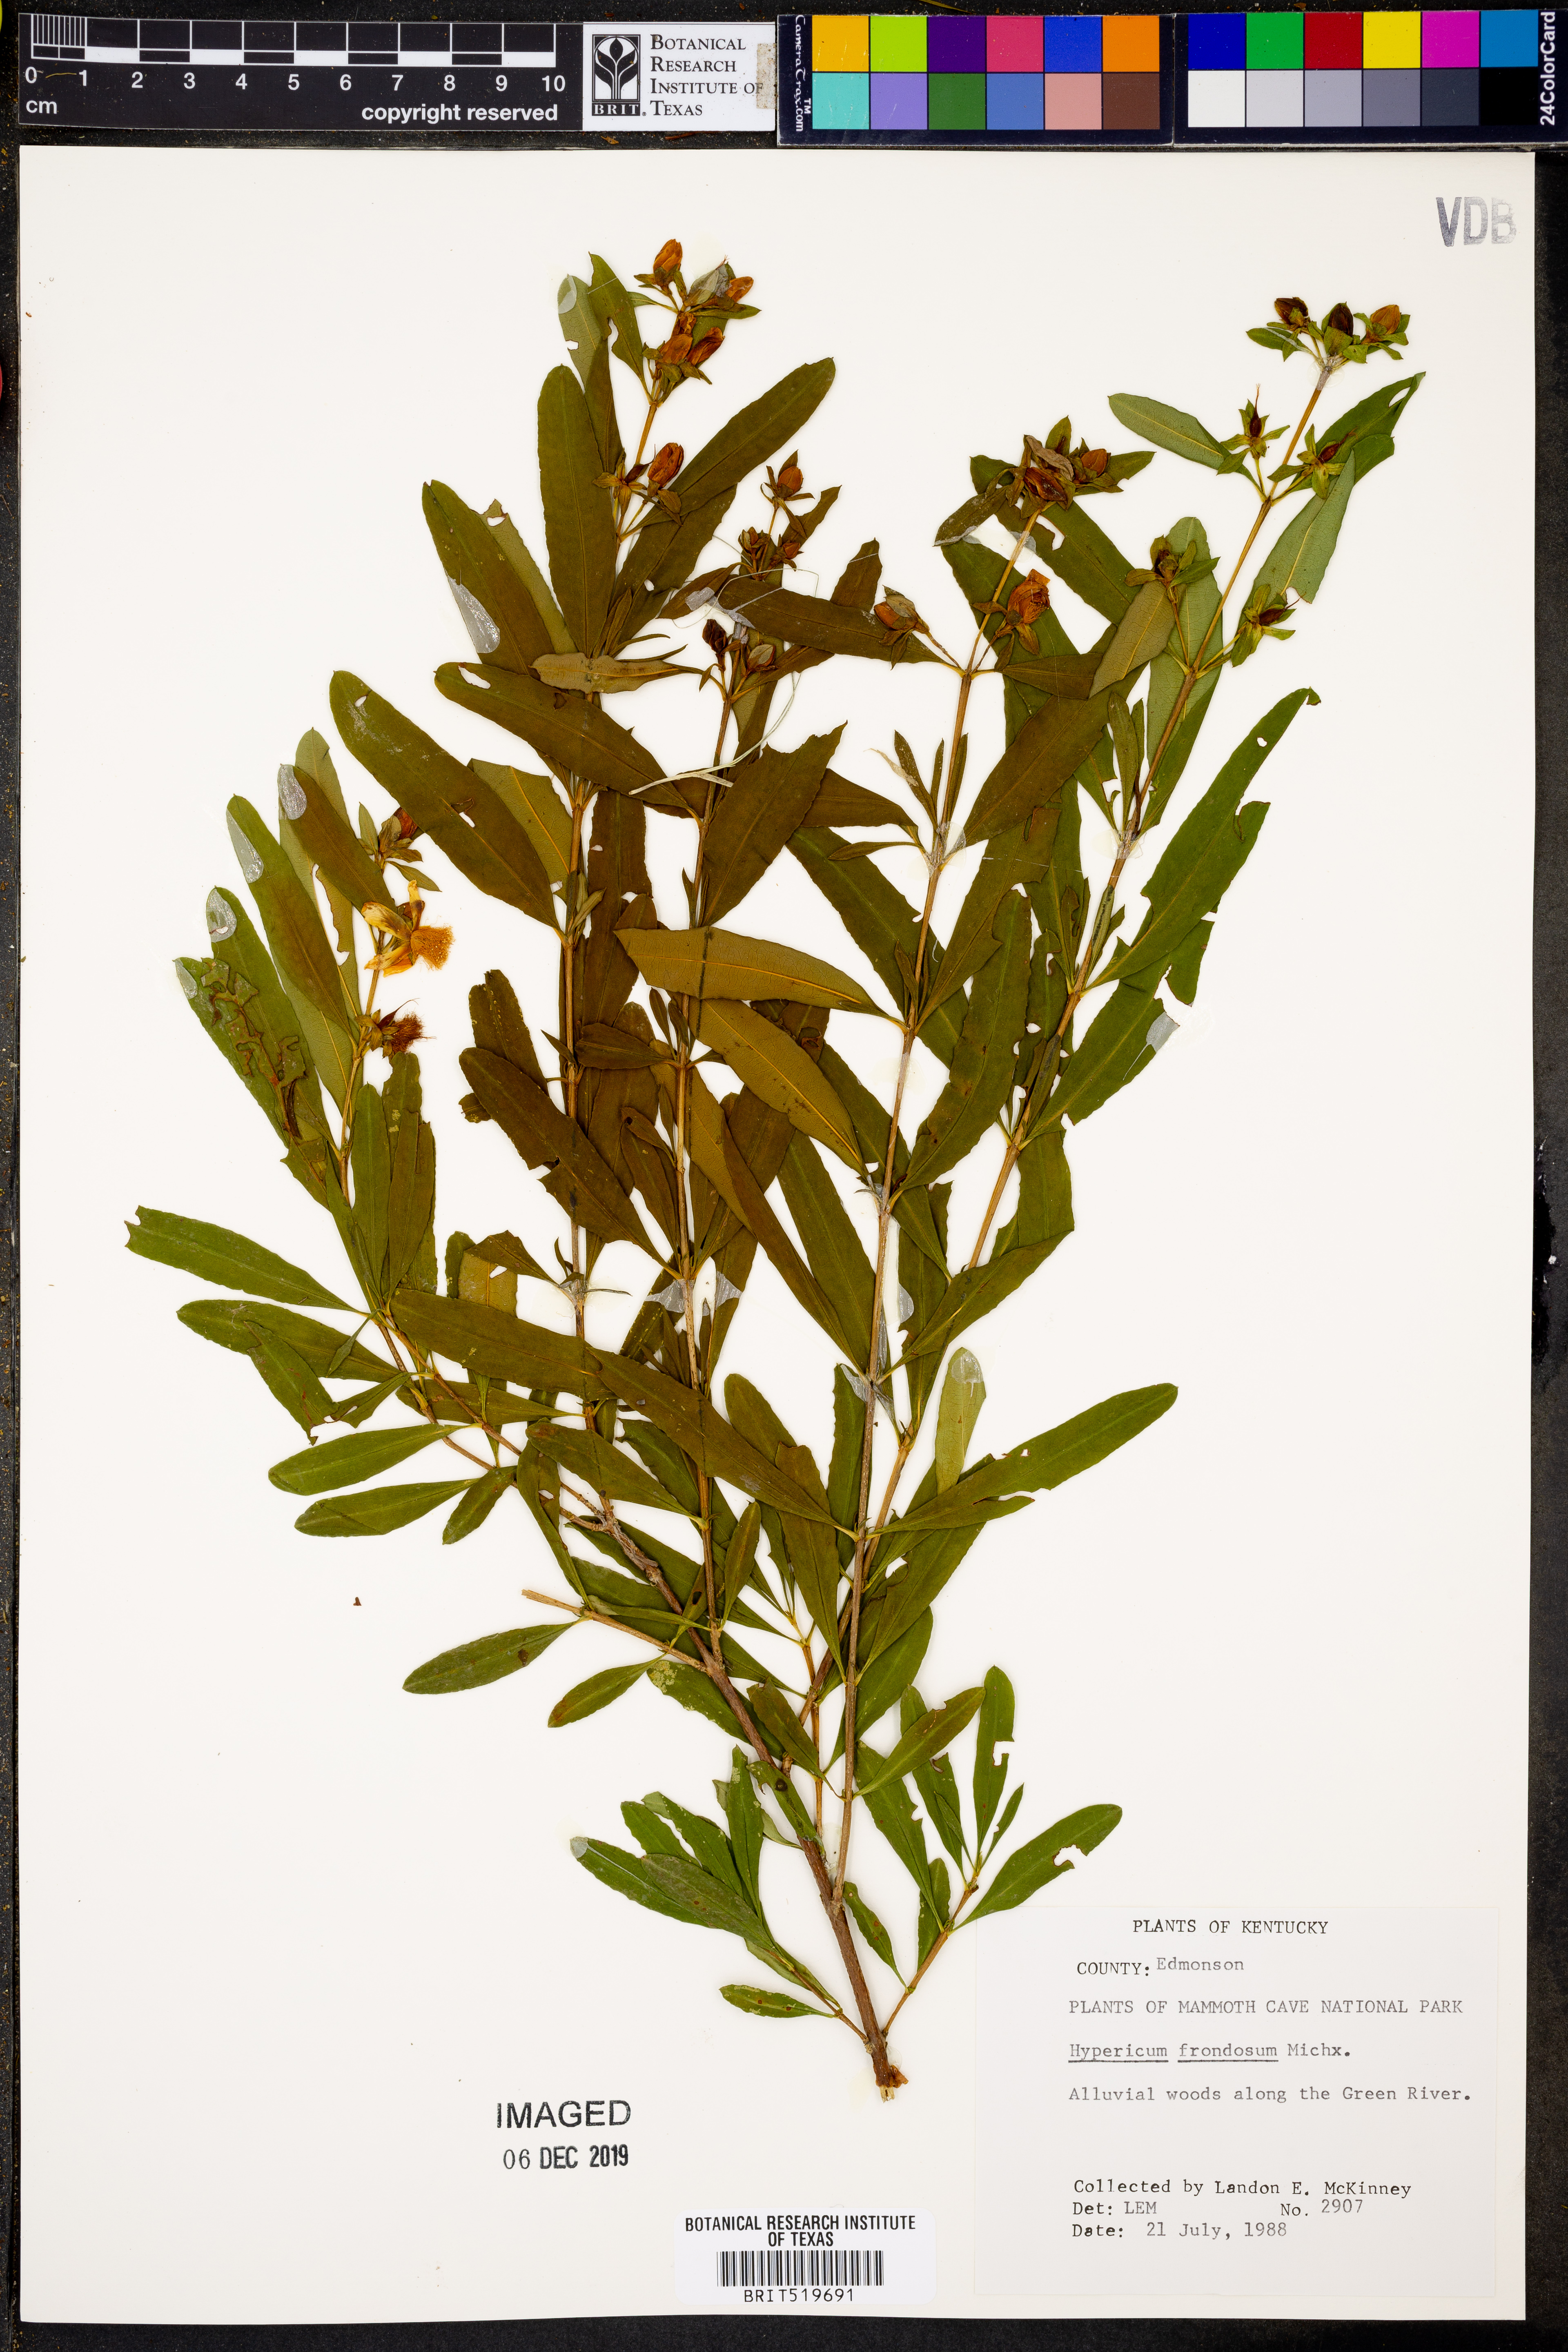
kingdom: Plantae
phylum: Tracheophyta
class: Magnoliopsida
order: Malpighiales
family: Hypericaceae
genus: Hypericum
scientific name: Hypericum frondosum
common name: Golden st. john's-wort
